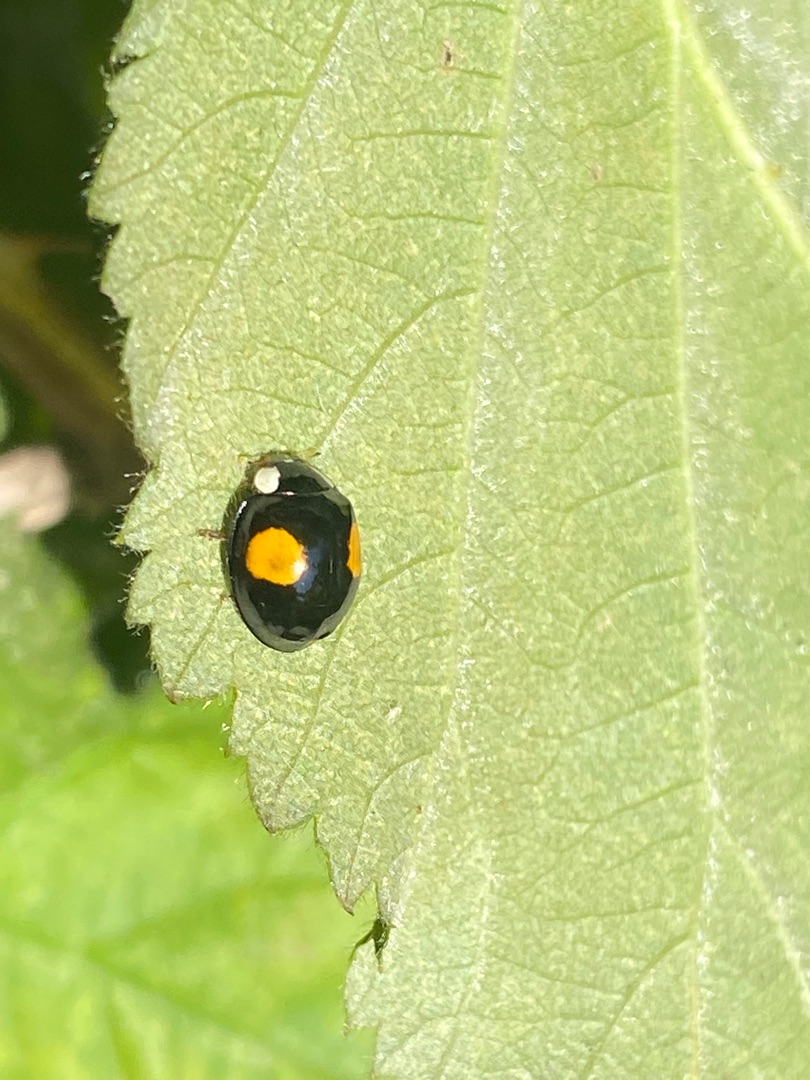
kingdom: Animalia
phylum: Arthropoda
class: Insecta
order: Coleoptera
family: Coccinellidae
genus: Harmonia
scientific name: Harmonia axyridis
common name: Harlekinmariehøne
